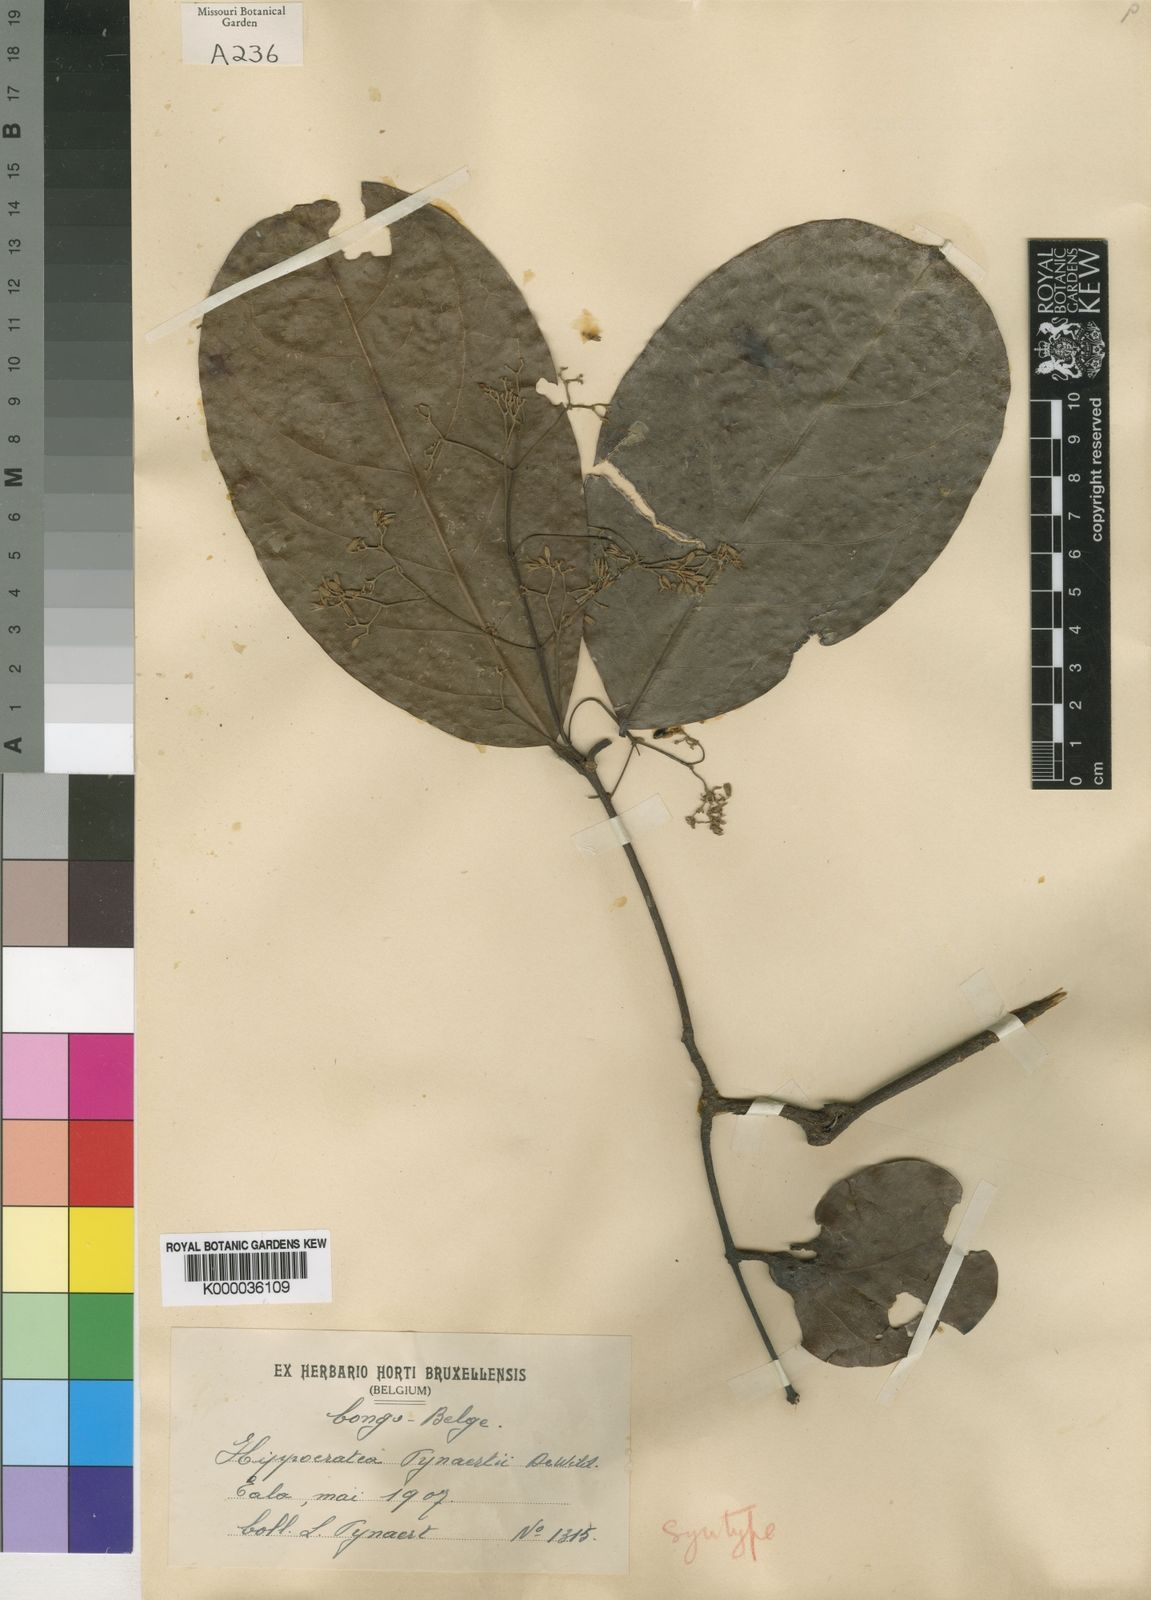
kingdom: Plantae
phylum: Tracheophyta
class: Magnoliopsida
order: Celastrales
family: Celastraceae
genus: Loeseneriella
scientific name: Loeseneriella apiculata
